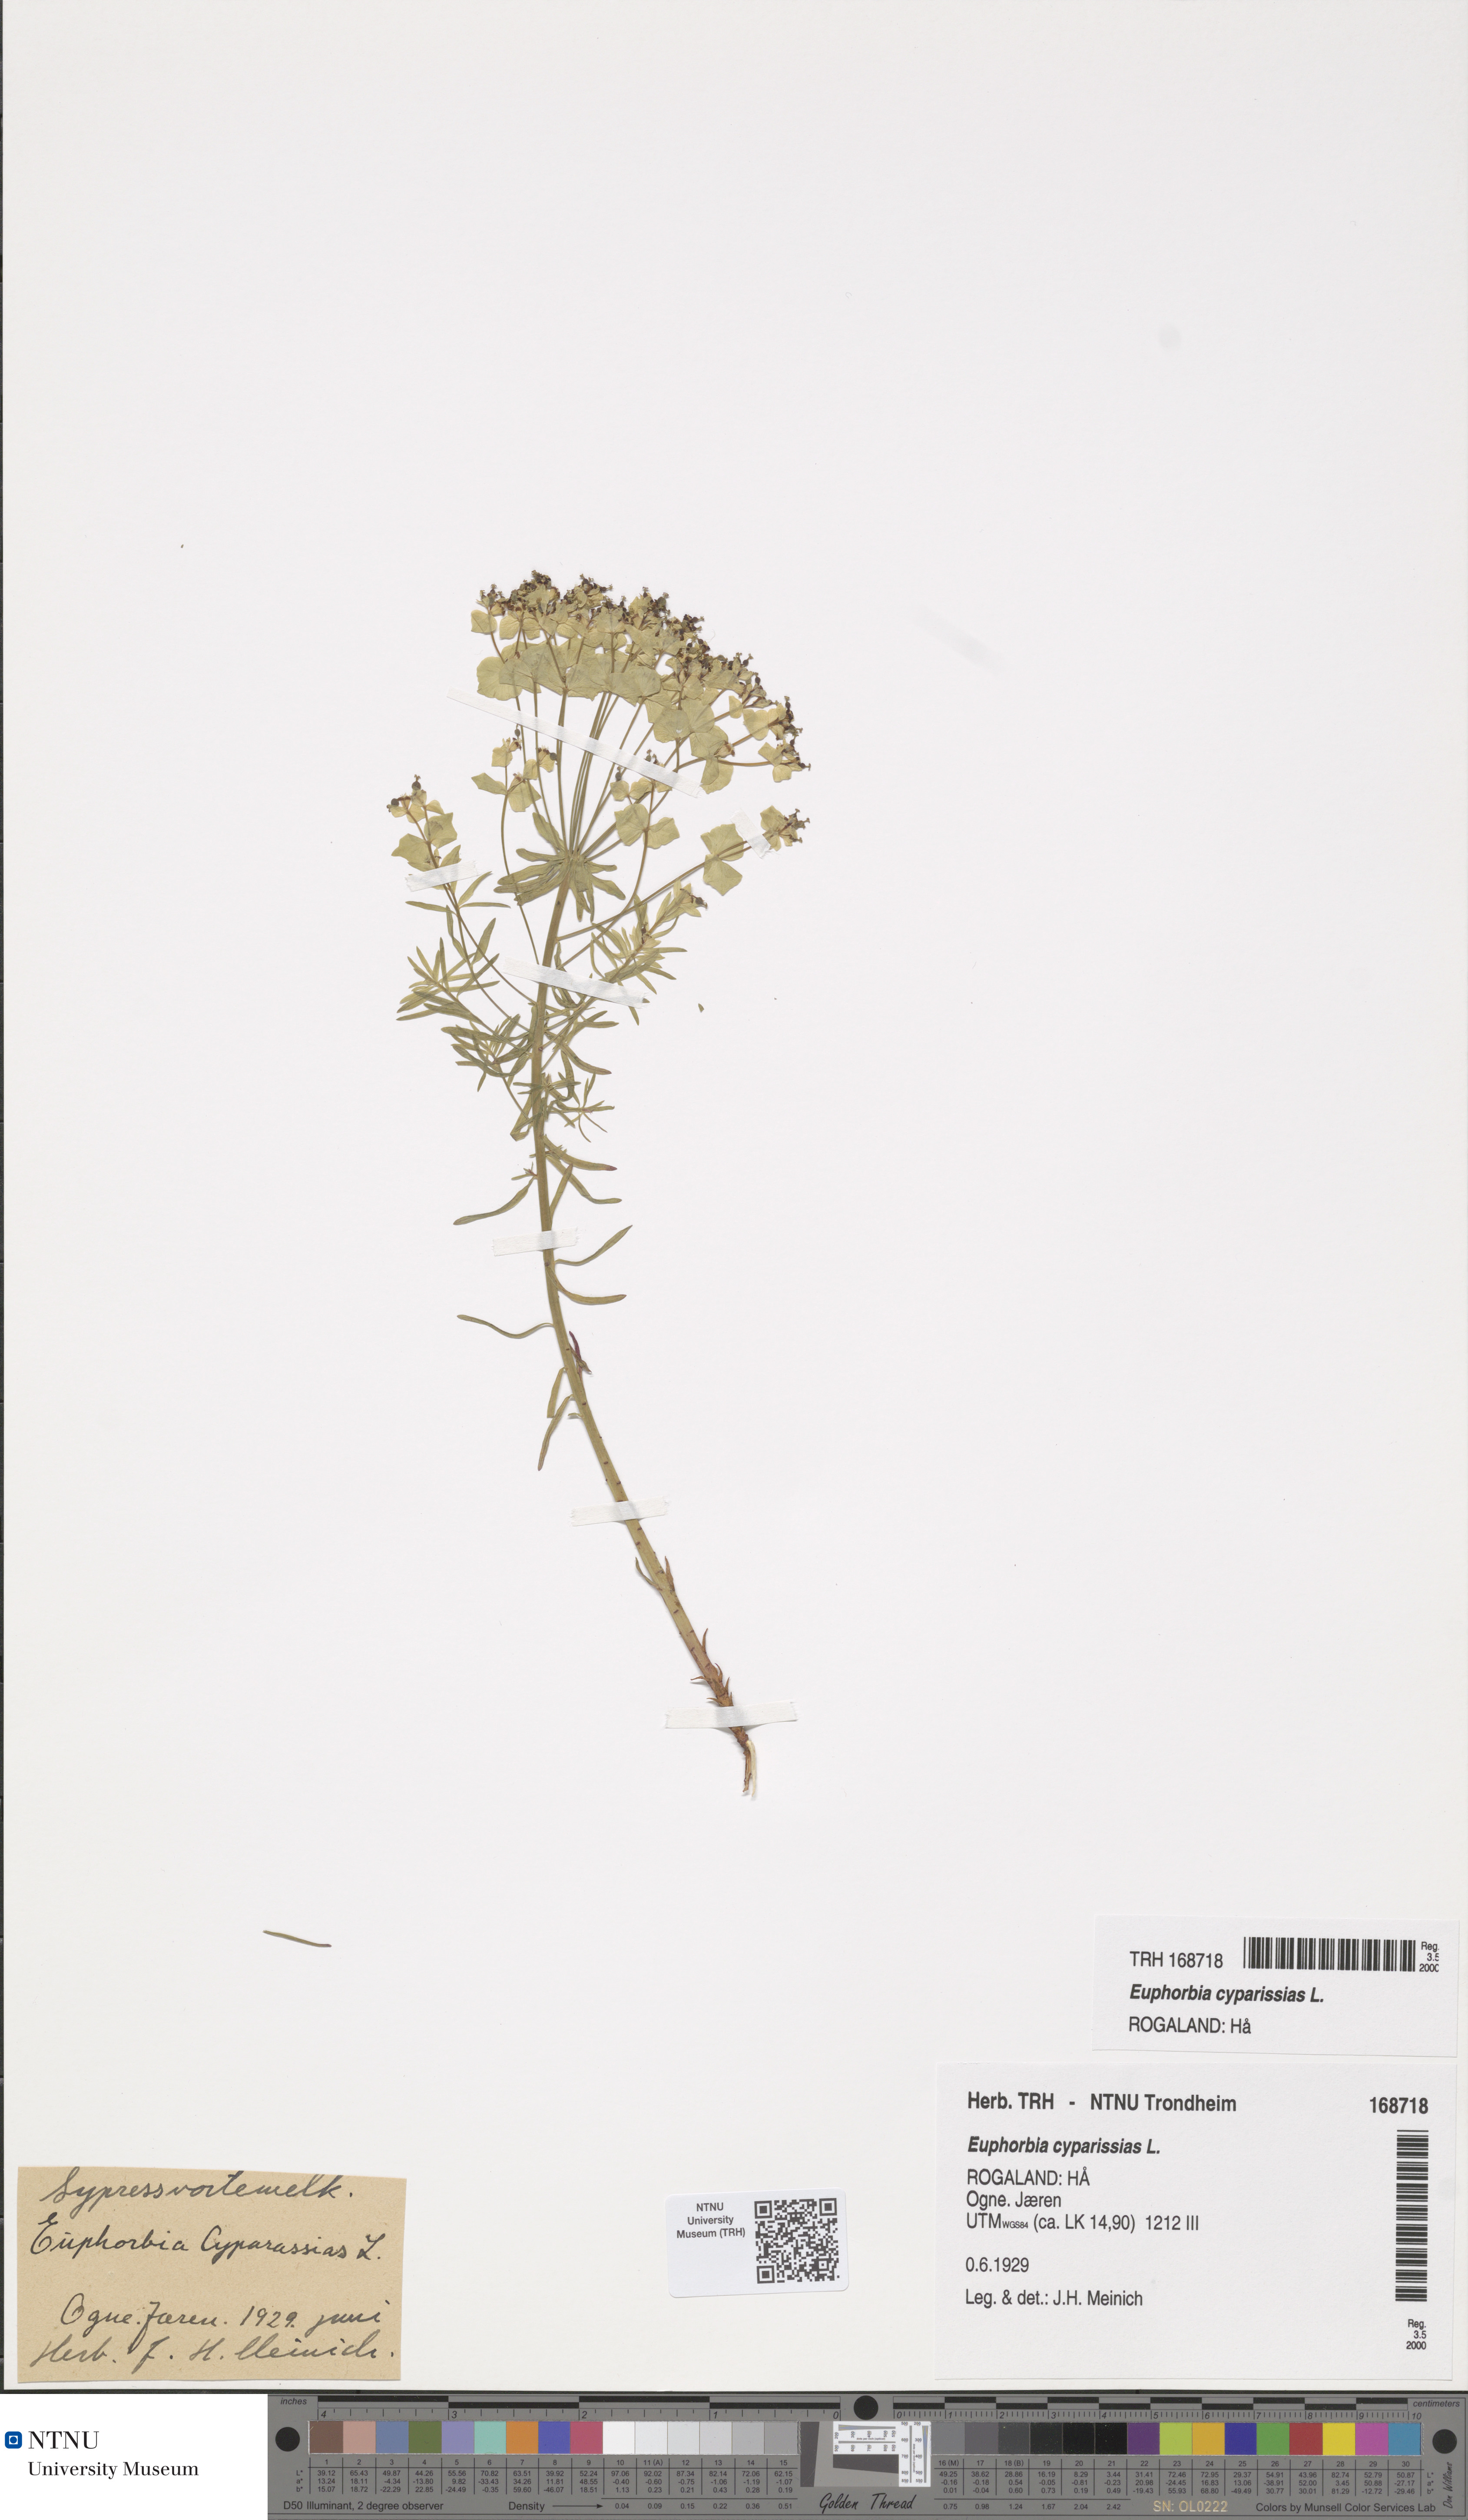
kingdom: Plantae
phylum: Tracheophyta
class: Magnoliopsida
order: Malpighiales
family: Euphorbiaceae
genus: Euphorbia
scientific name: Euphorbia cyparissias
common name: Cypress spurge
